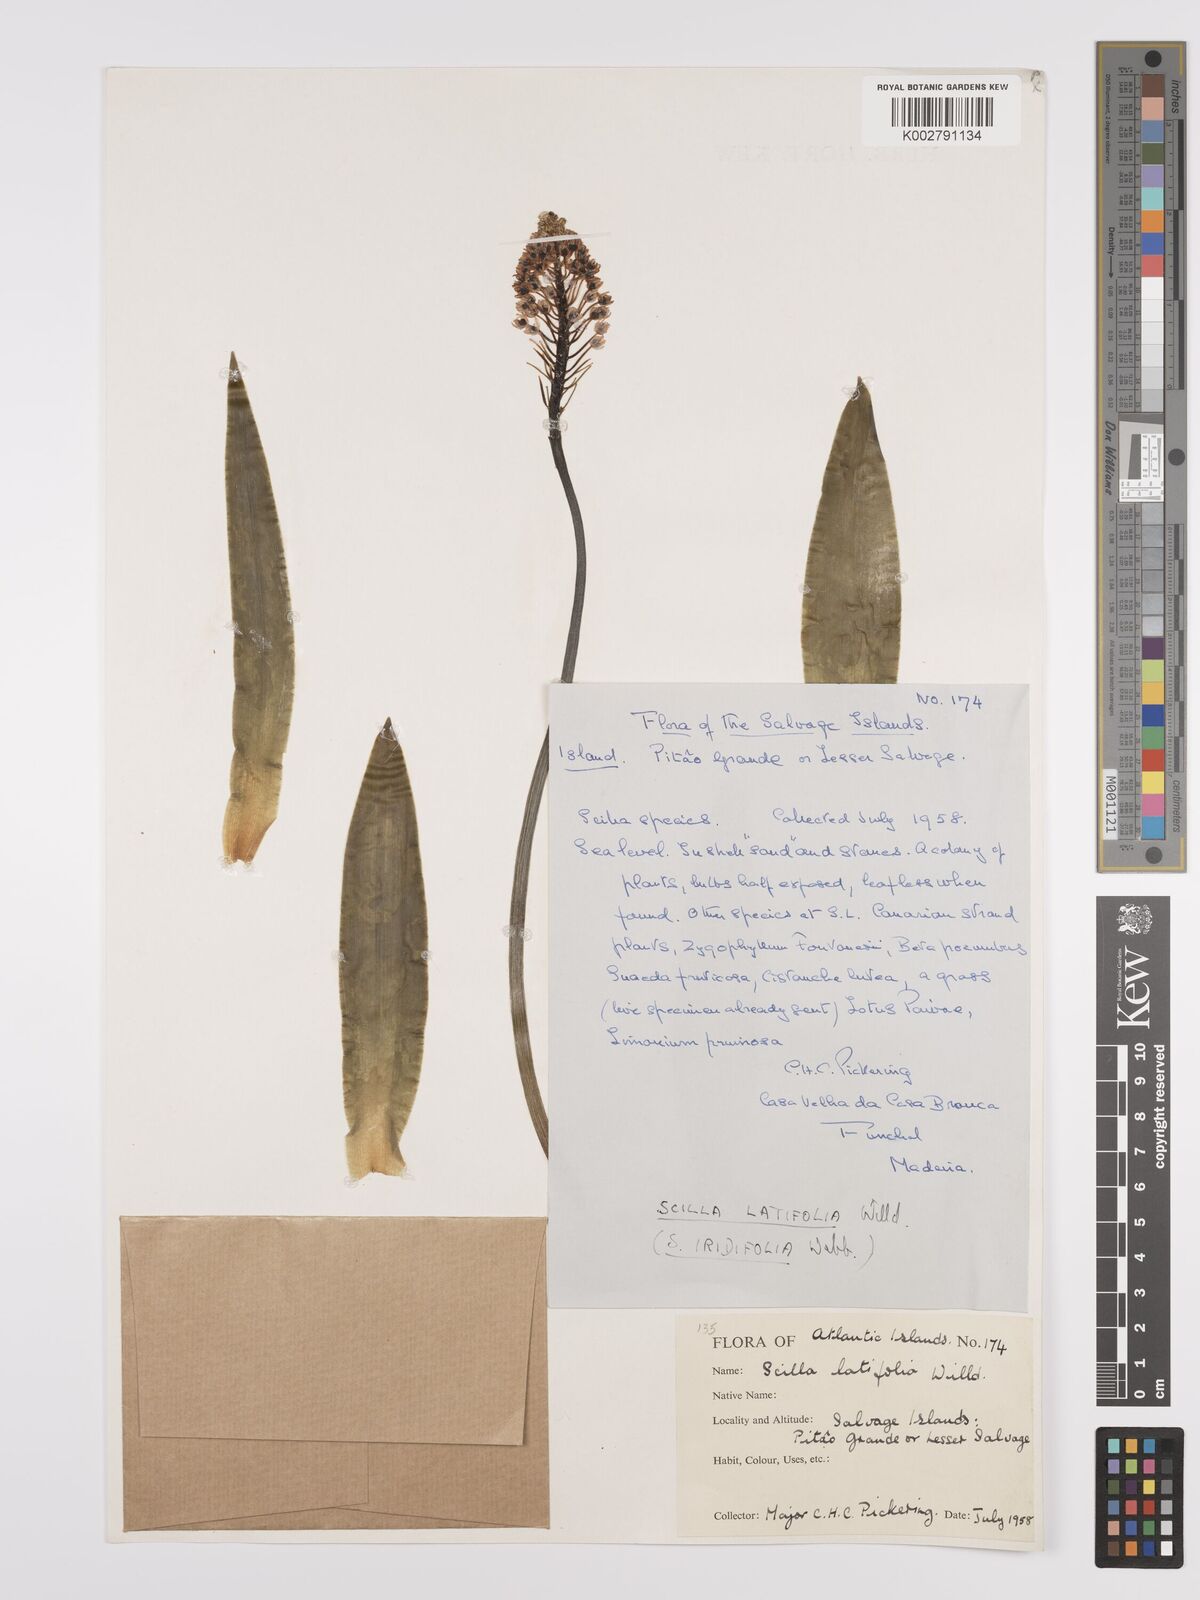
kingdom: Plantae
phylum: Tracheophyta
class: Liliopsida
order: Asparagales
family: Asparagaceae
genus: Scilla
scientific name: Scilla latifolia
